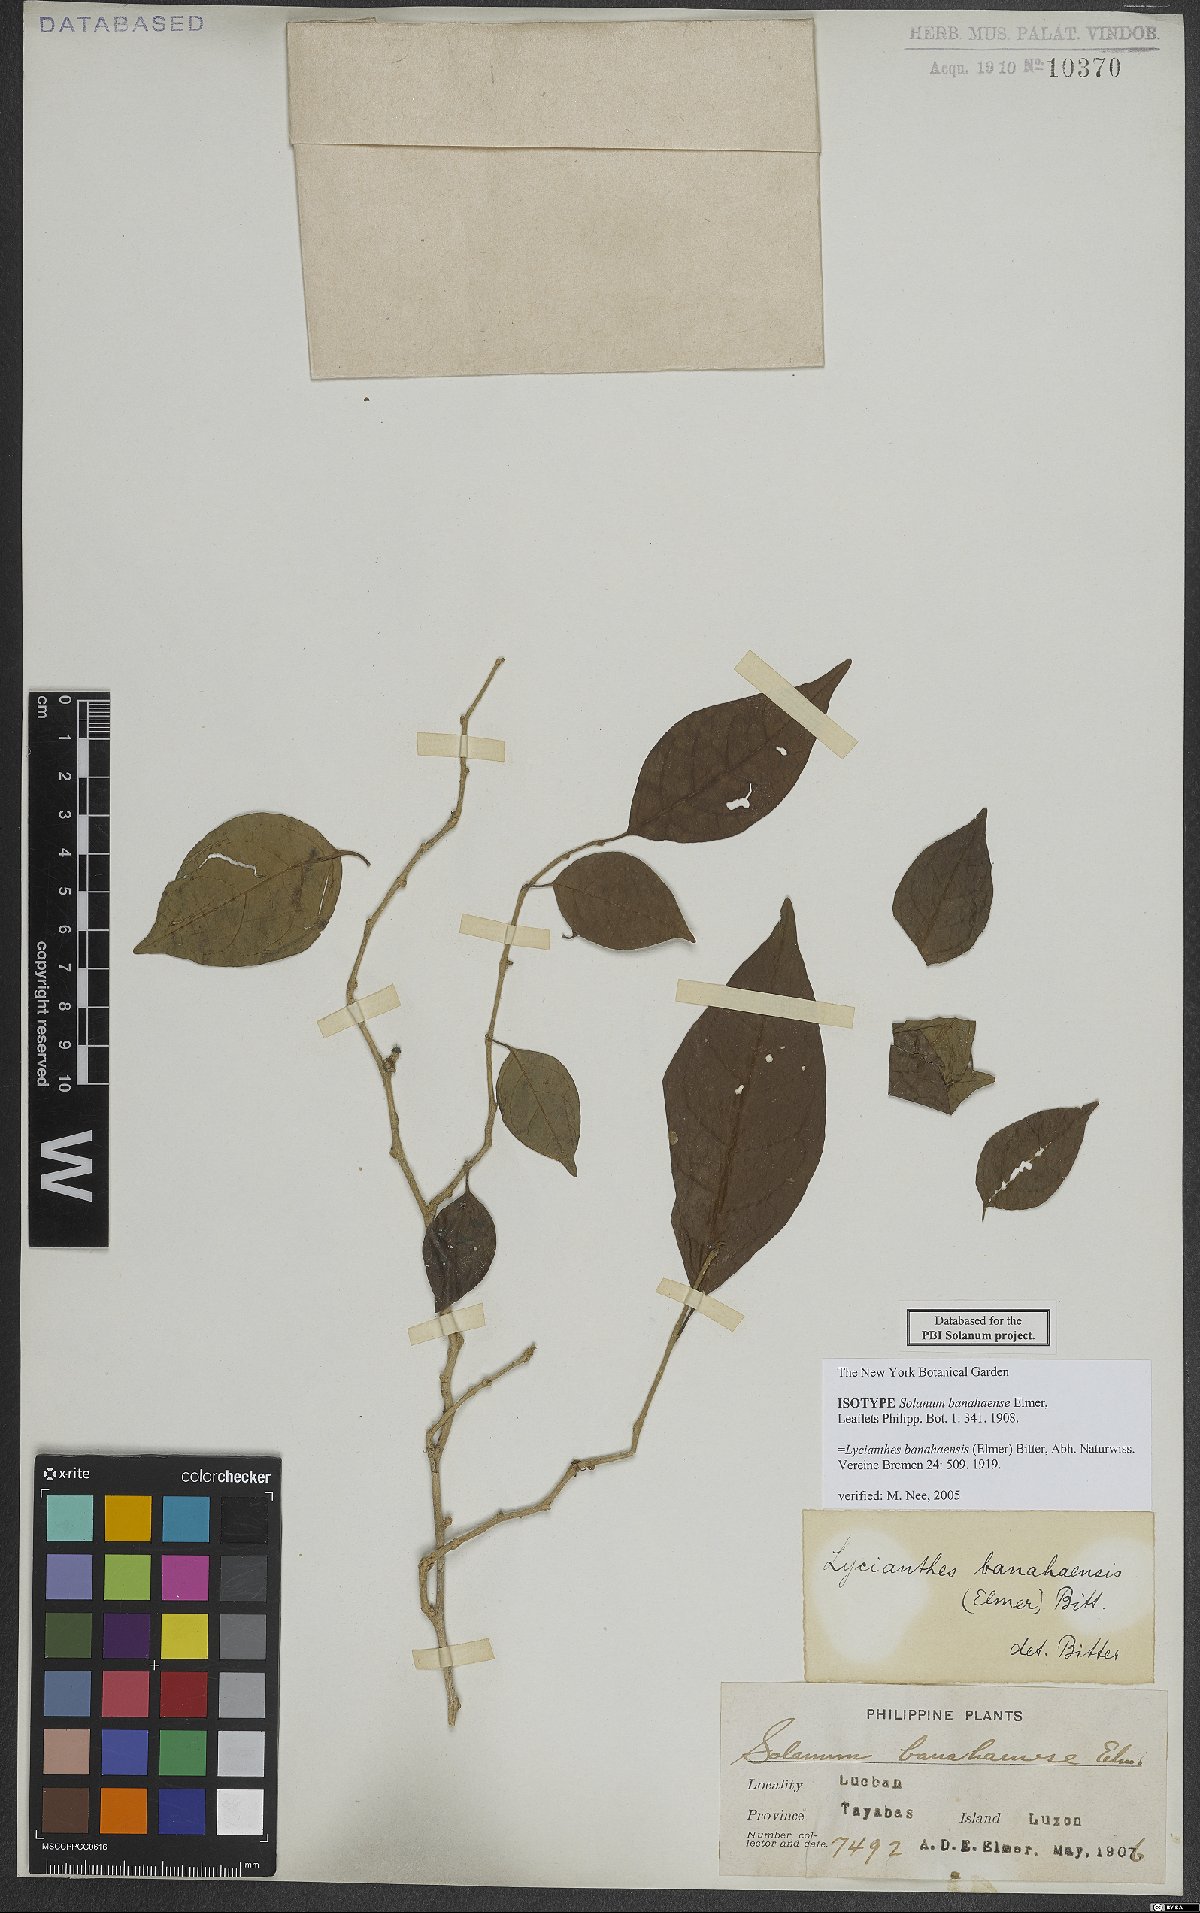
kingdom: Plantae
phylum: Tracheophyta
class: Magnoliopsida
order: Solanales
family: Solanaceae
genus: Lycianthes
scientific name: Lycianthes banahaensis
